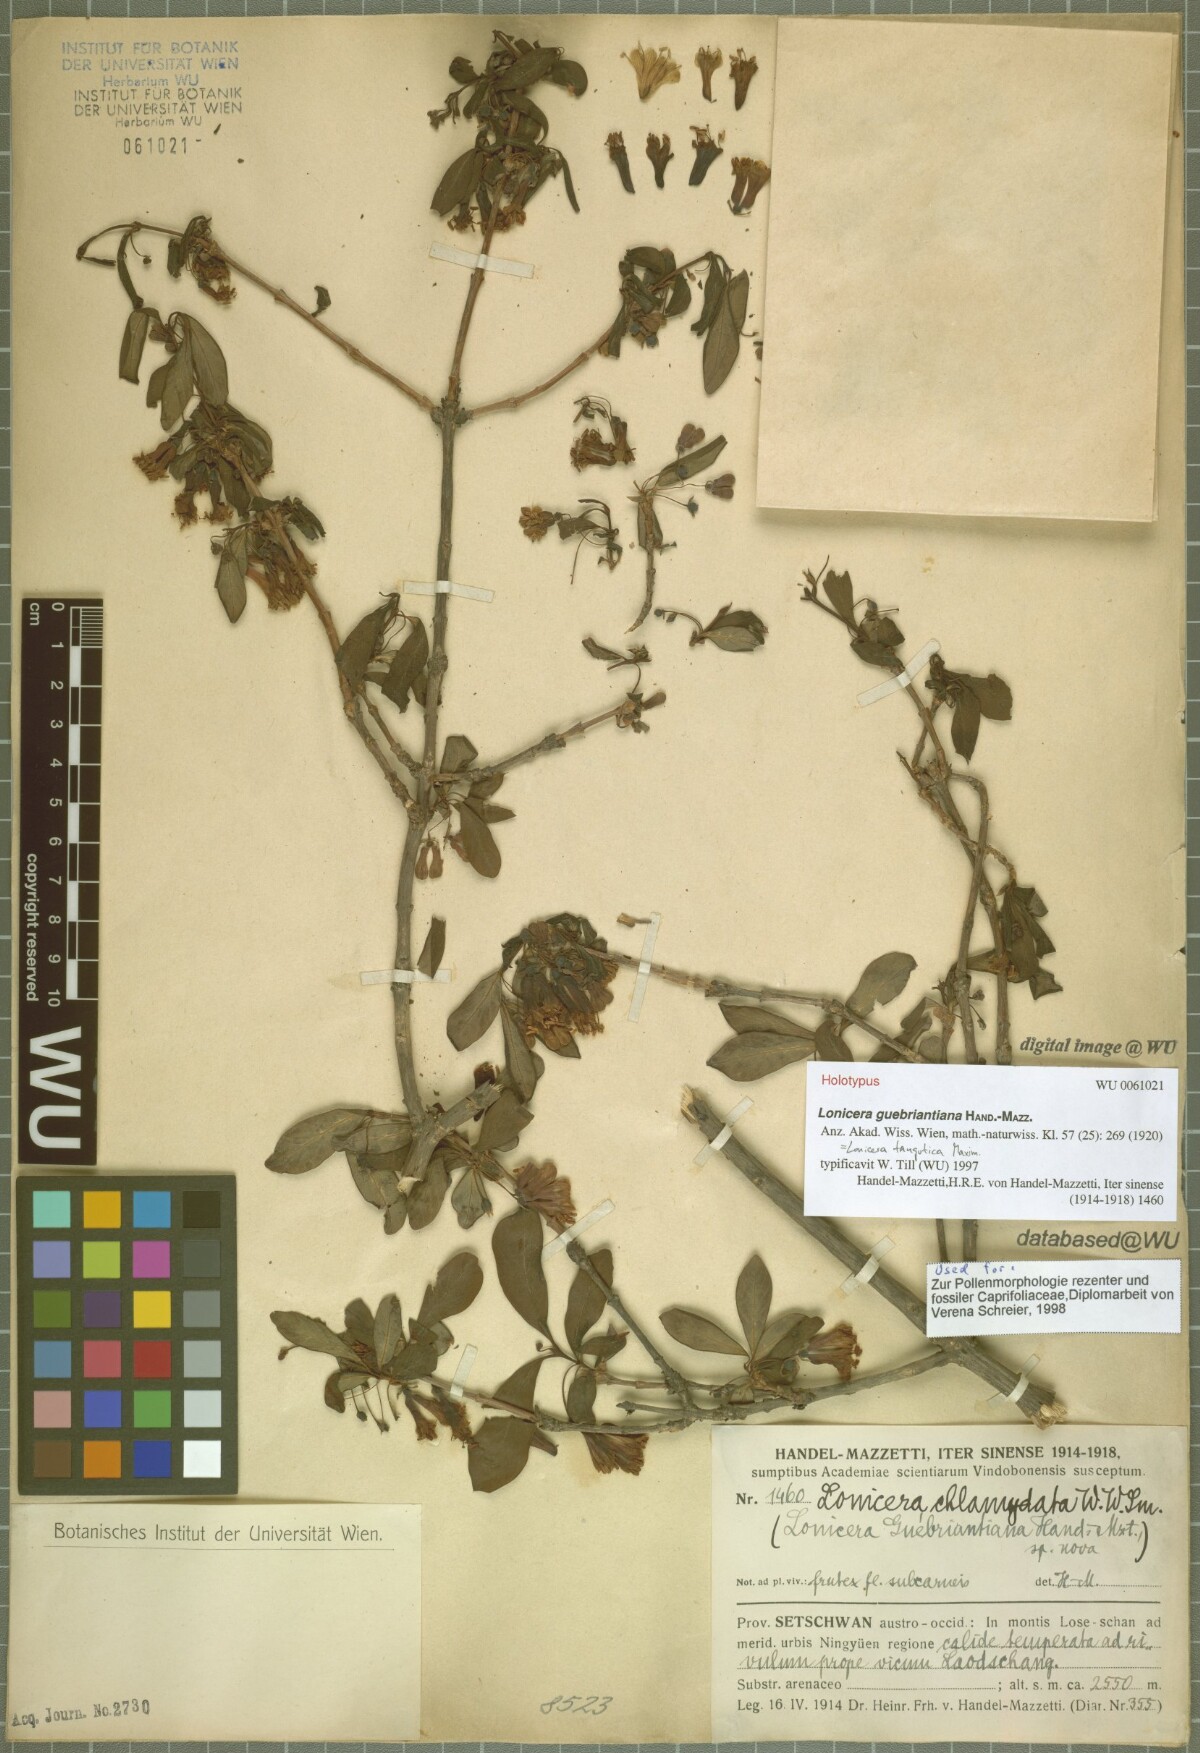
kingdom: Plantae
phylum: Tracheophyta
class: Magnoliopsida
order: Dipsacales
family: Caprifoliaceae
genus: Lonicera
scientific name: Lonicera tangutica
